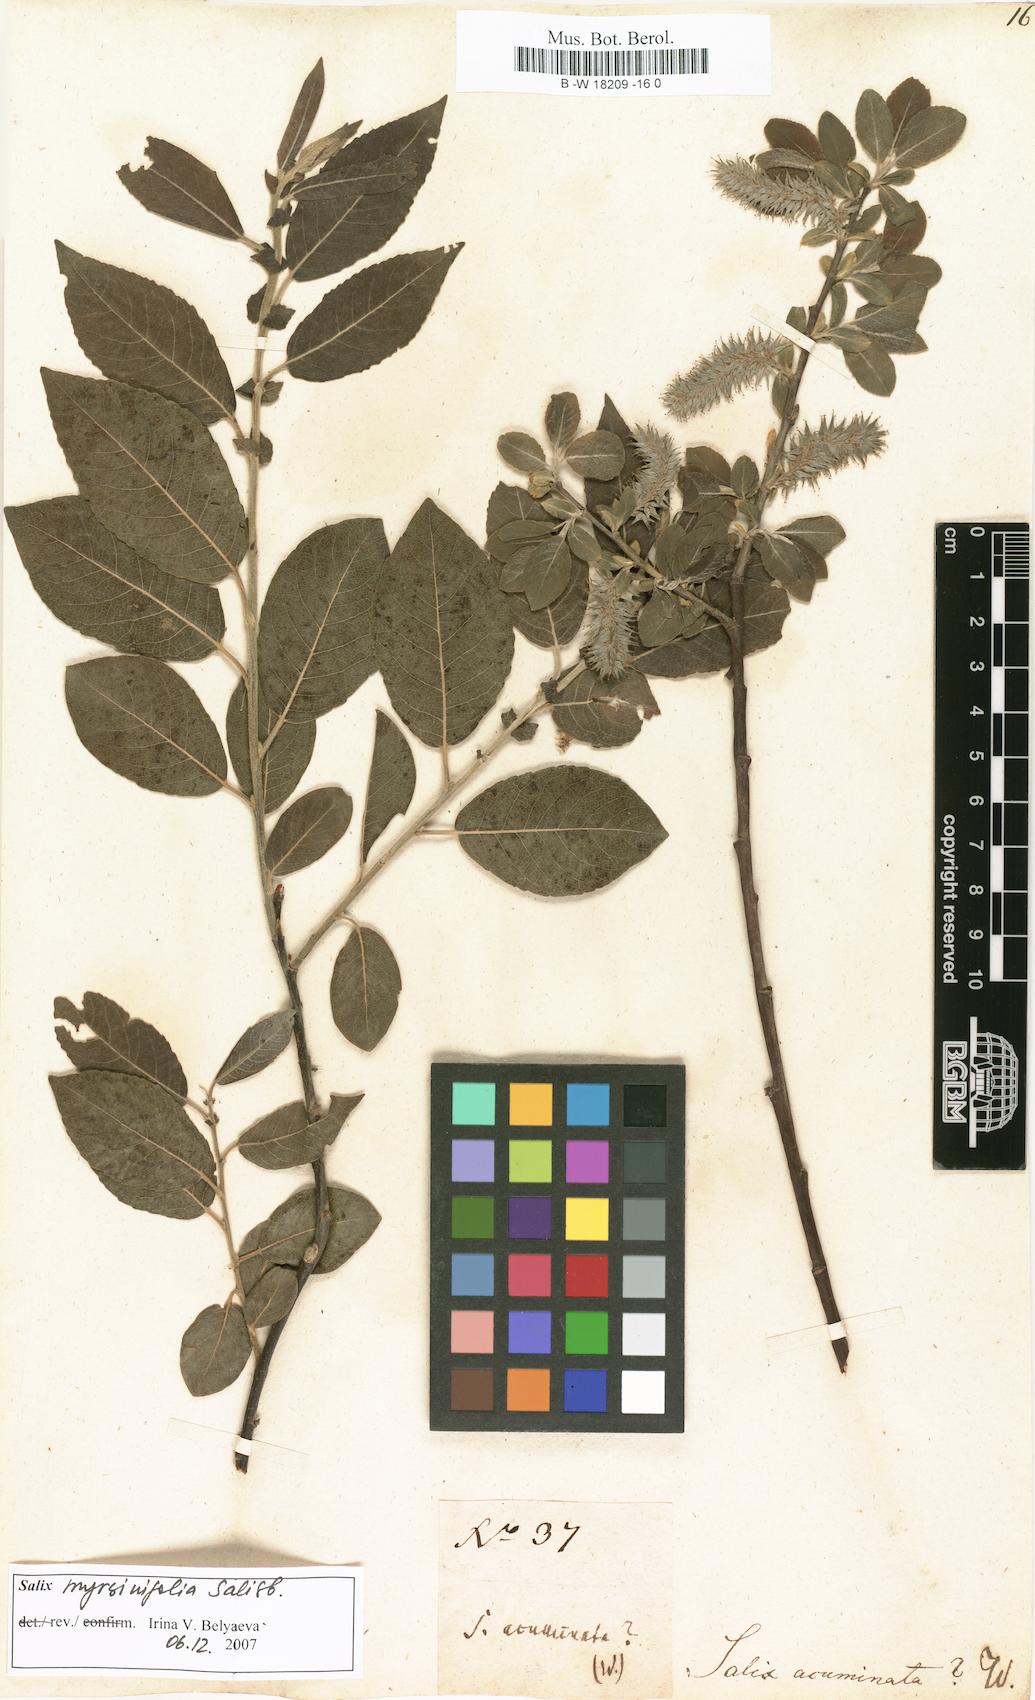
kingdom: Plantae
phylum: Tracheophyta
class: Magnoliopsida
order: Malpighiales
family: Salicaceae
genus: Salix
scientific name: Salix
